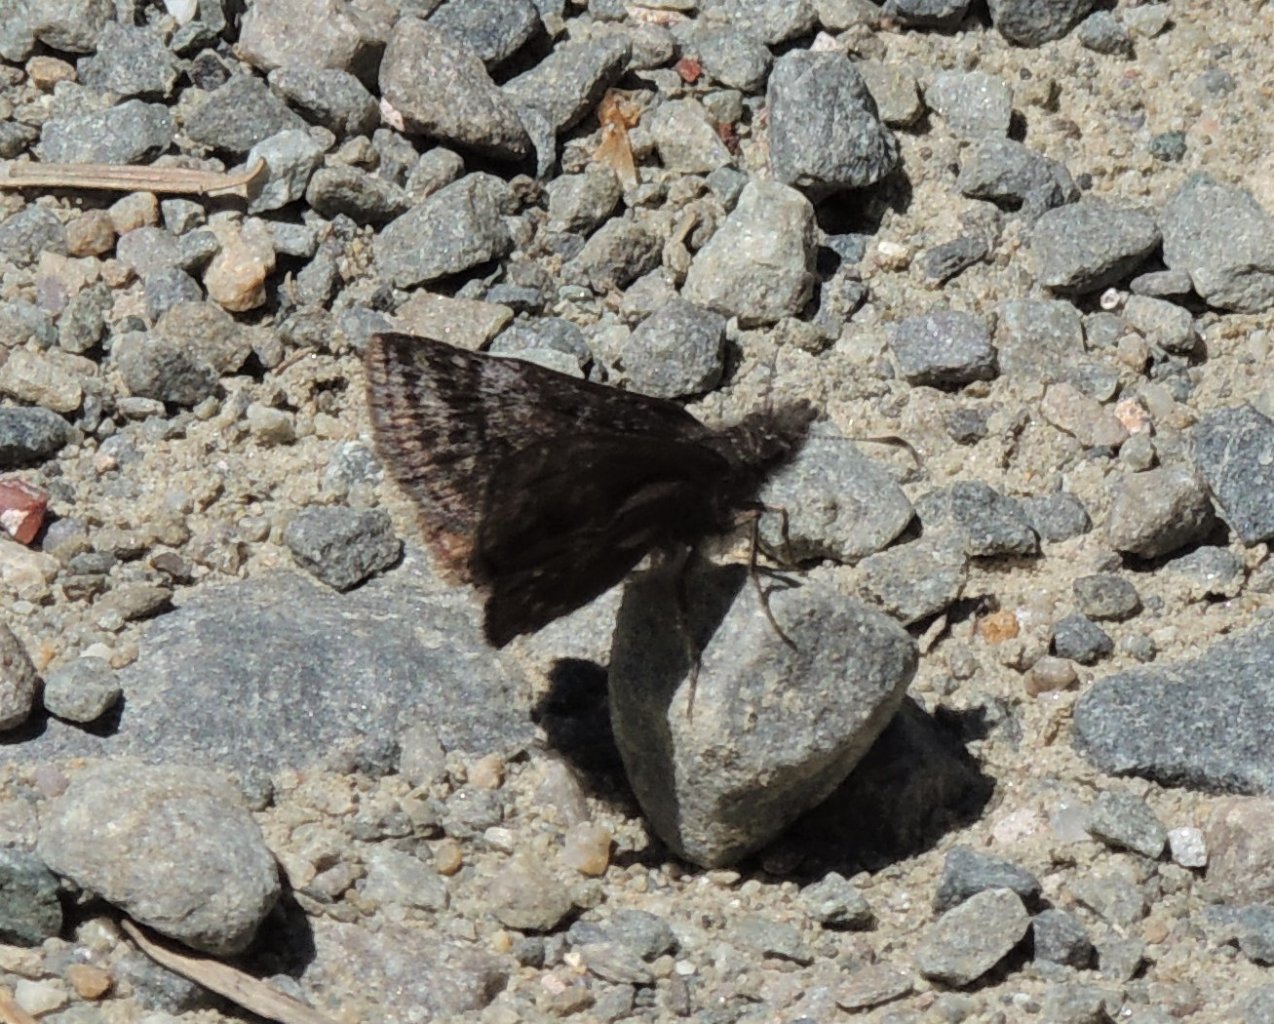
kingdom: Animalia
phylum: Arthropoda
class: Insecta
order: Lepidoptera
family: Hesperiidae
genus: Erynnis
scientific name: Erynnis icelus
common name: Dreamy Duskywing
